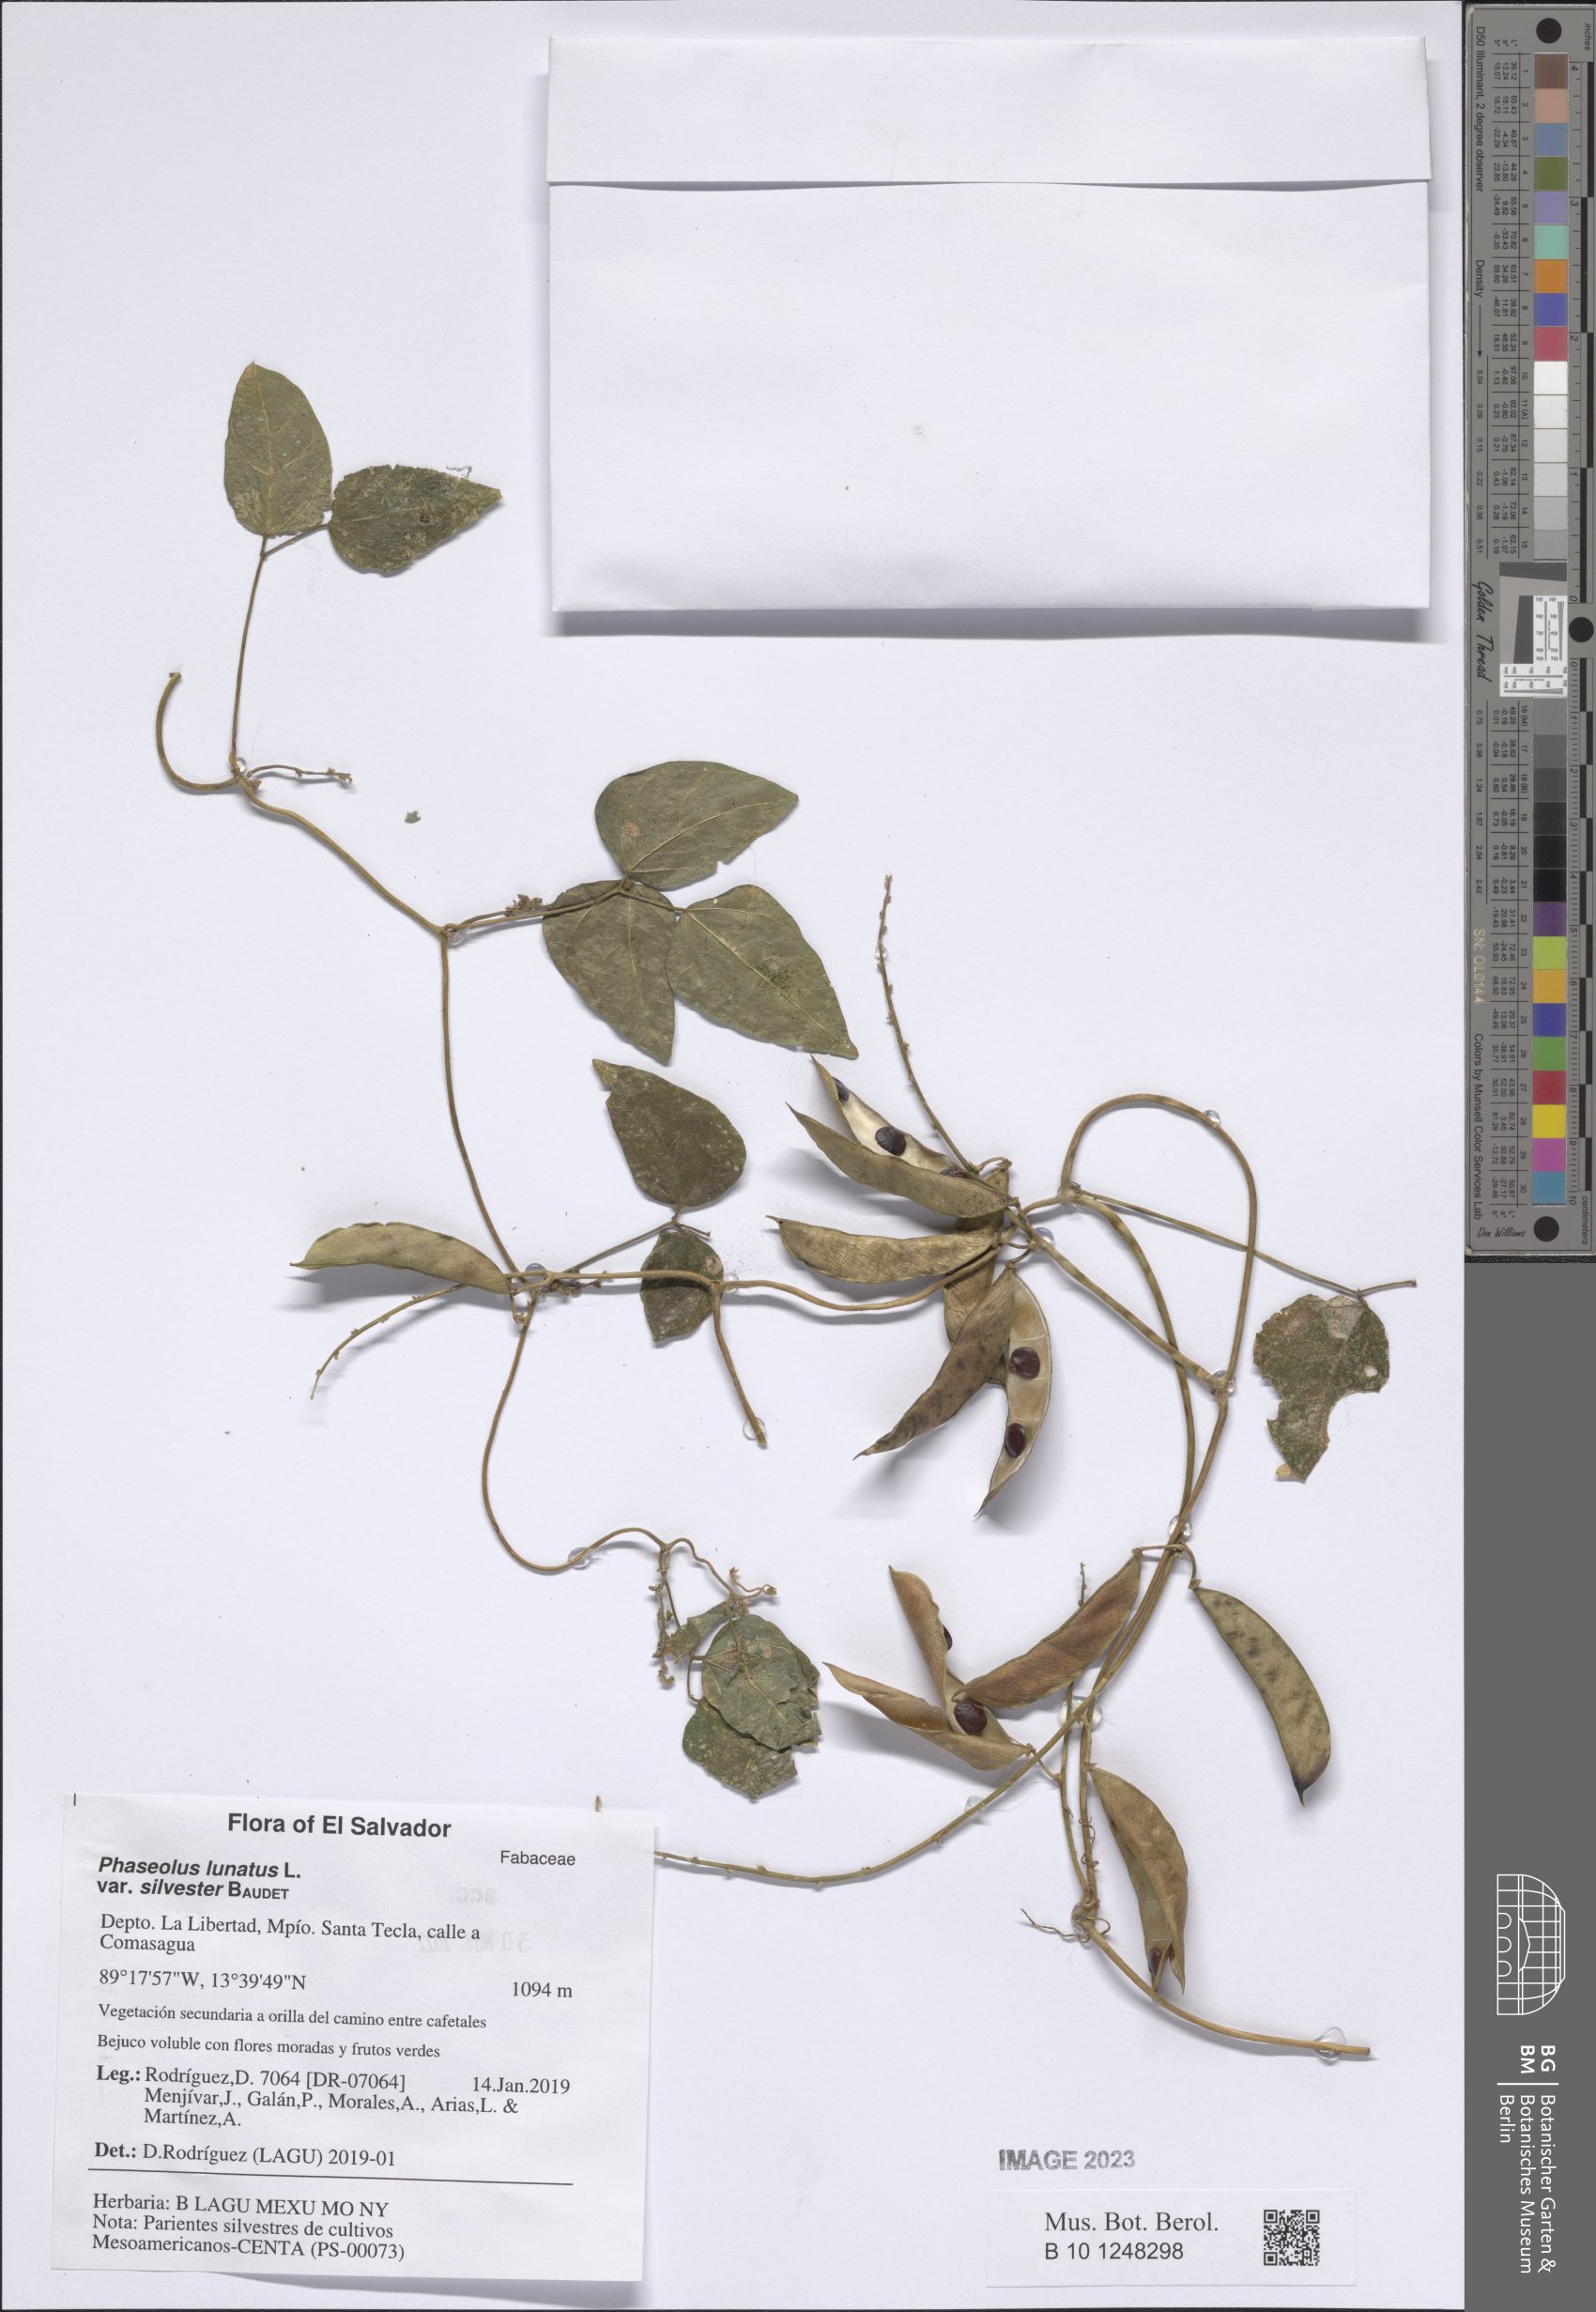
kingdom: Plantae
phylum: Tracheophyta
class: Magnoliopsida
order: Fabales
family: Fabaceae
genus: Phaseolus
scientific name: Phaseolus lunatus
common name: Sieva bean
